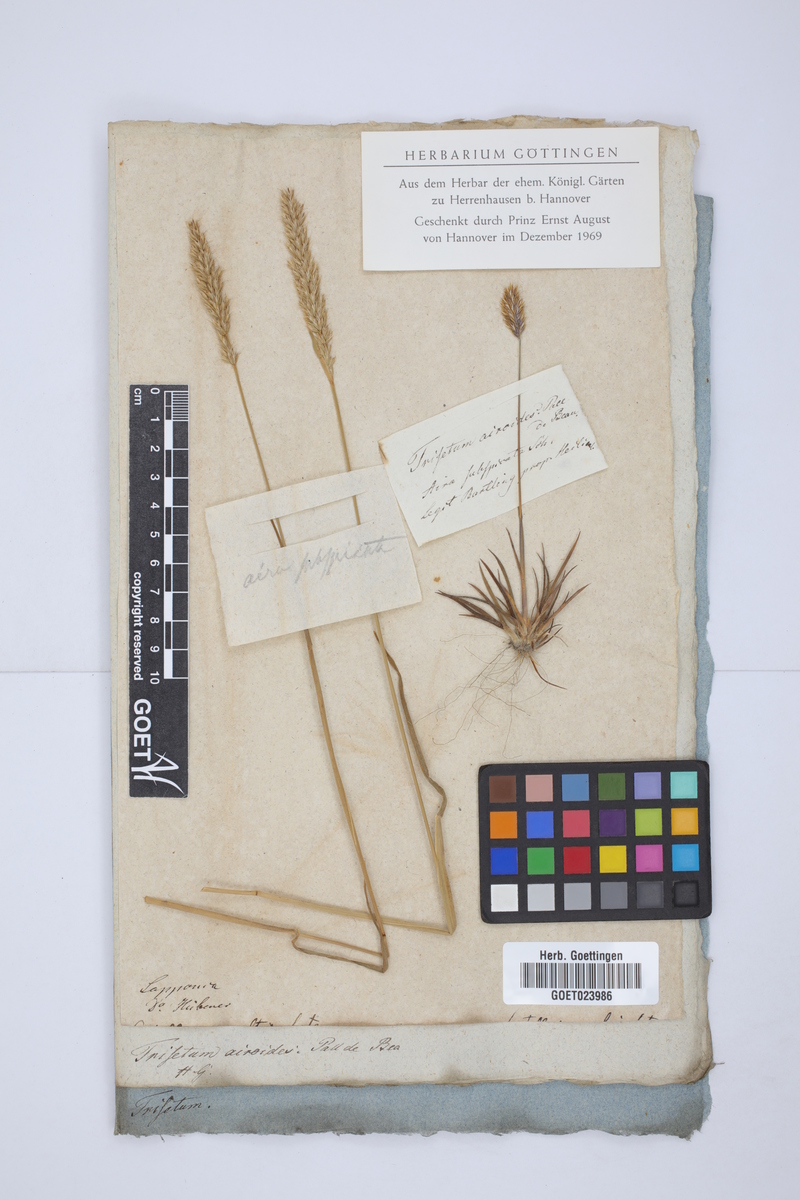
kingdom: Plantae
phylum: Tracheophyta
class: Liliopsida
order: Poales
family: Poaceae
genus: Koeleria
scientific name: Koeleria spicata
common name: Mountain trisetum
